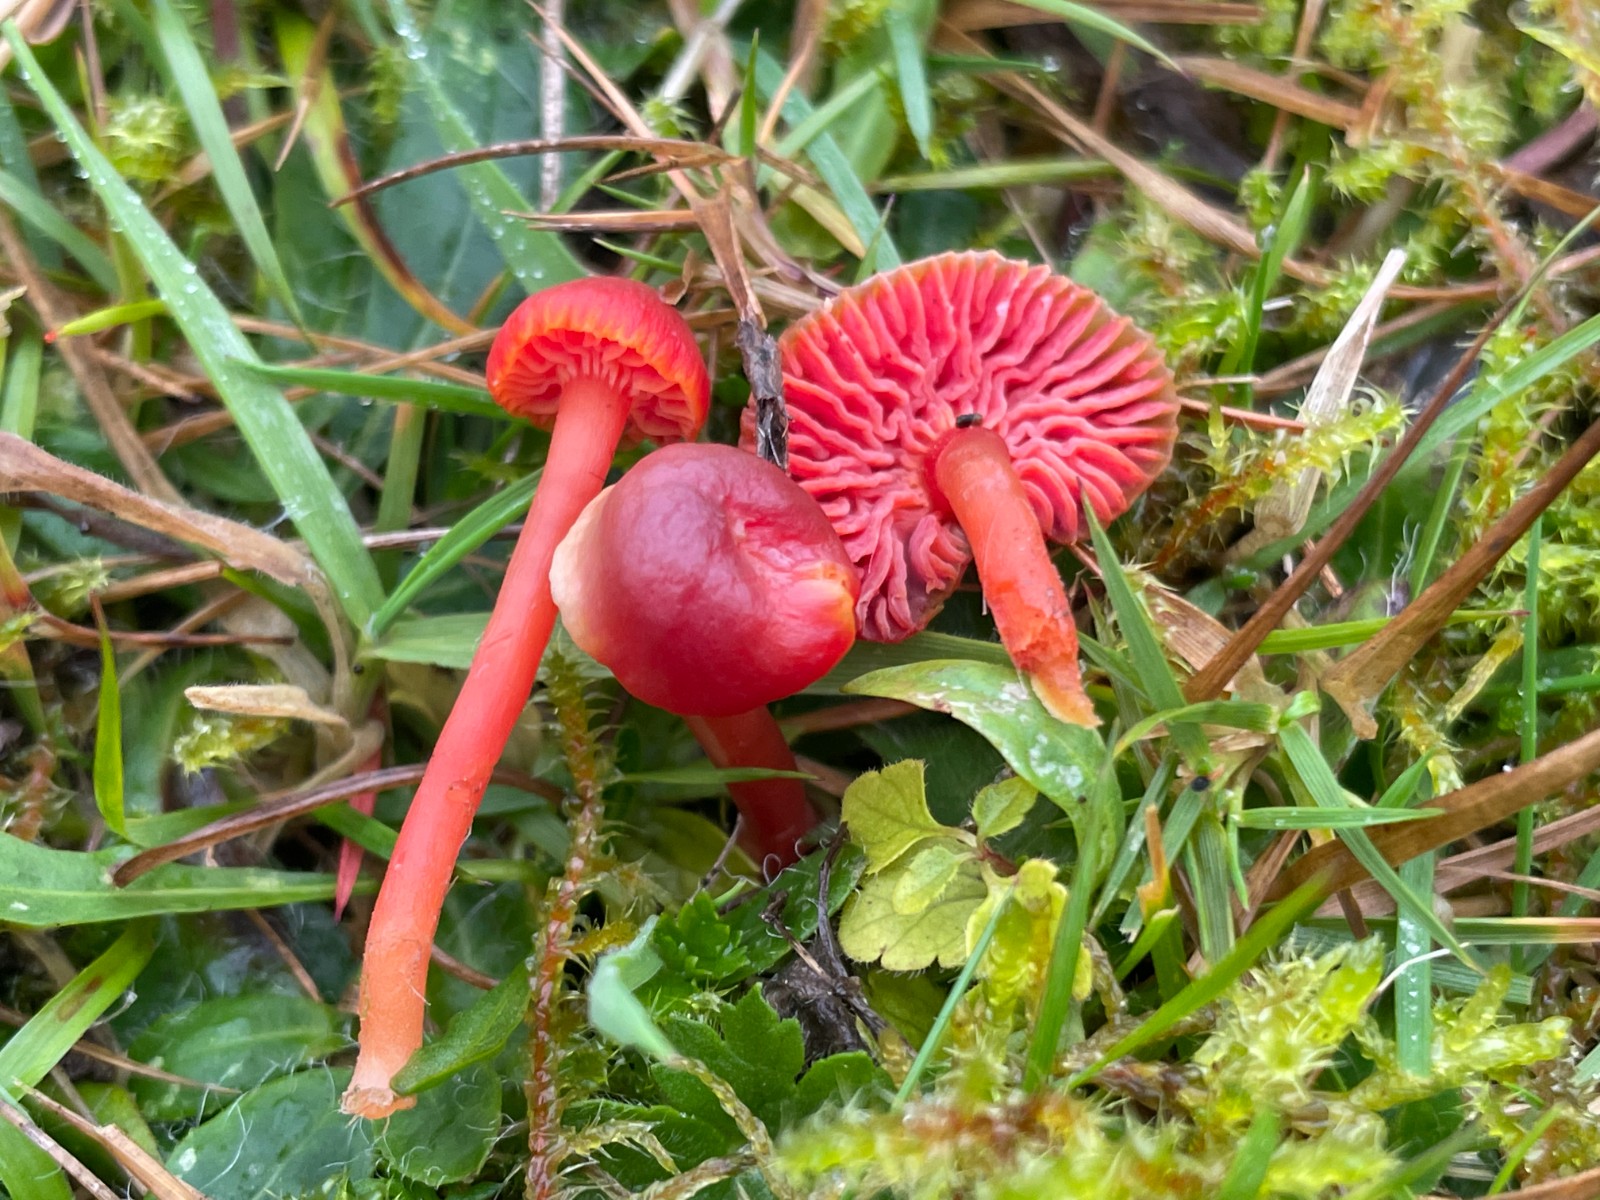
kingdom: Fungi
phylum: Basidiomycota
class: Agaricomycetes
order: Agaricales
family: Hygrophoraceae
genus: Hygrocybe
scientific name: Hygrocybe phaeococcinea
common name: sortdugget vokshat
